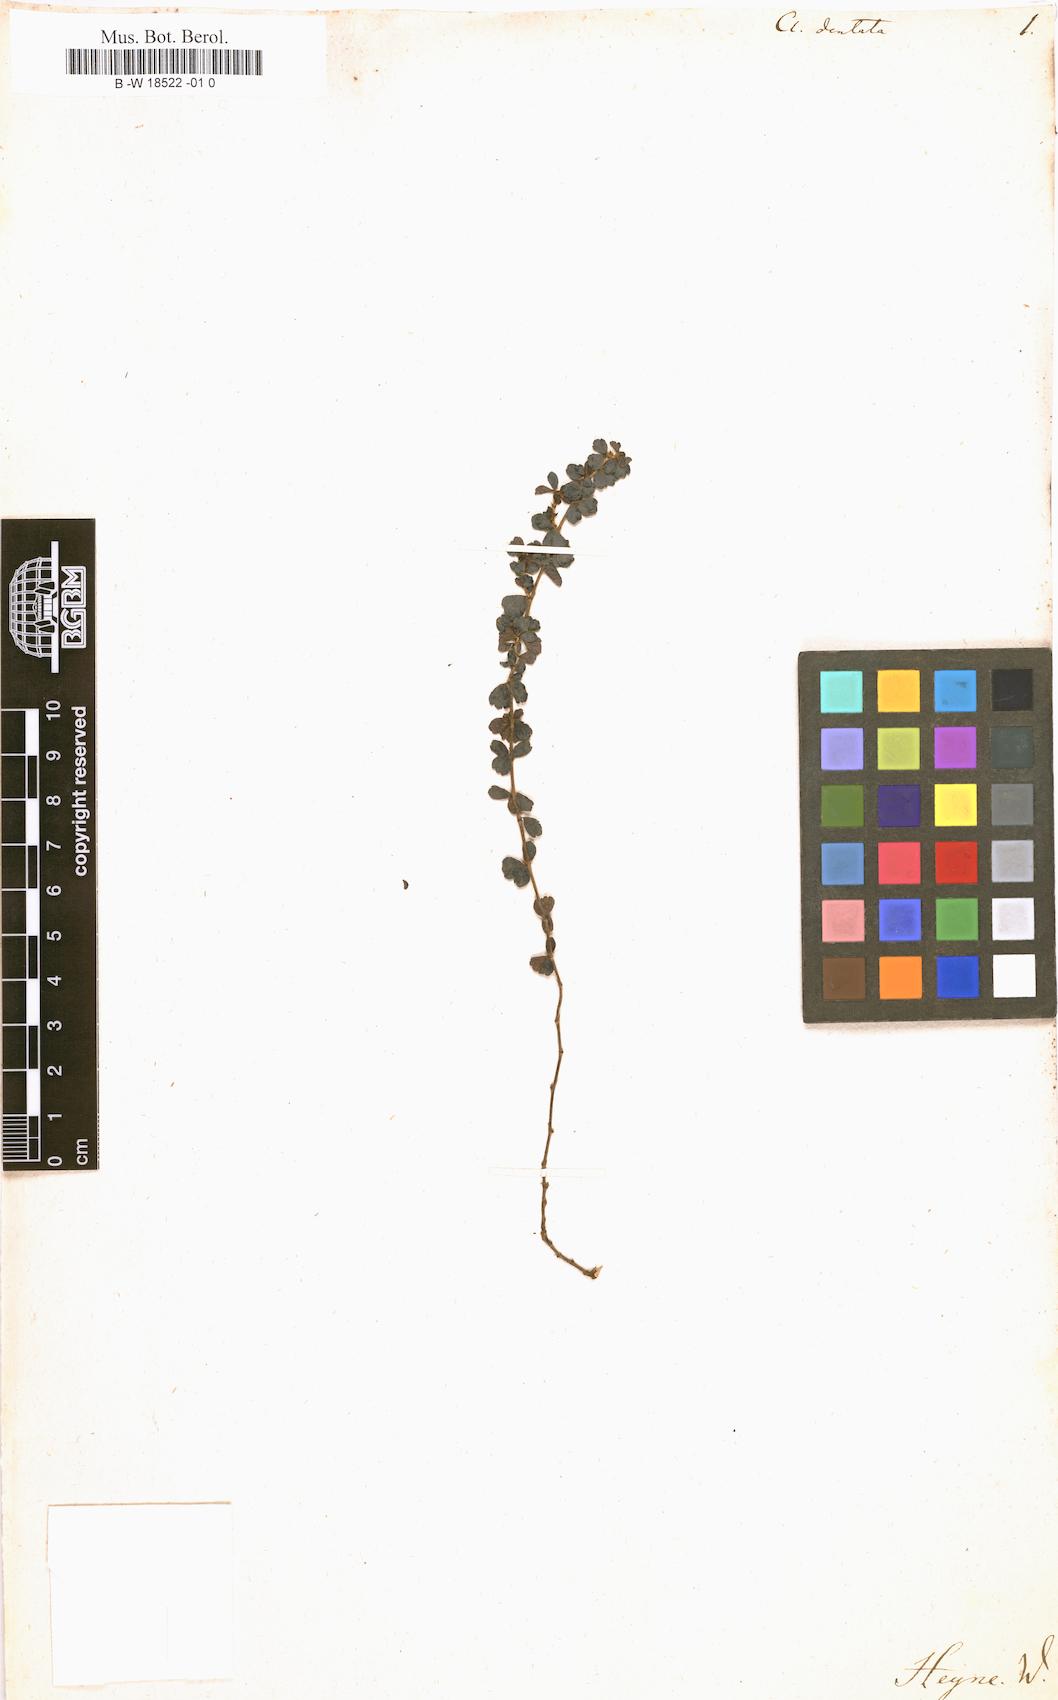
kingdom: Plantae
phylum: Tracheophyta
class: Magnoliopsida
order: Rosales
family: Rosaceae
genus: Cliffortia
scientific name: Cliffortia dentata
